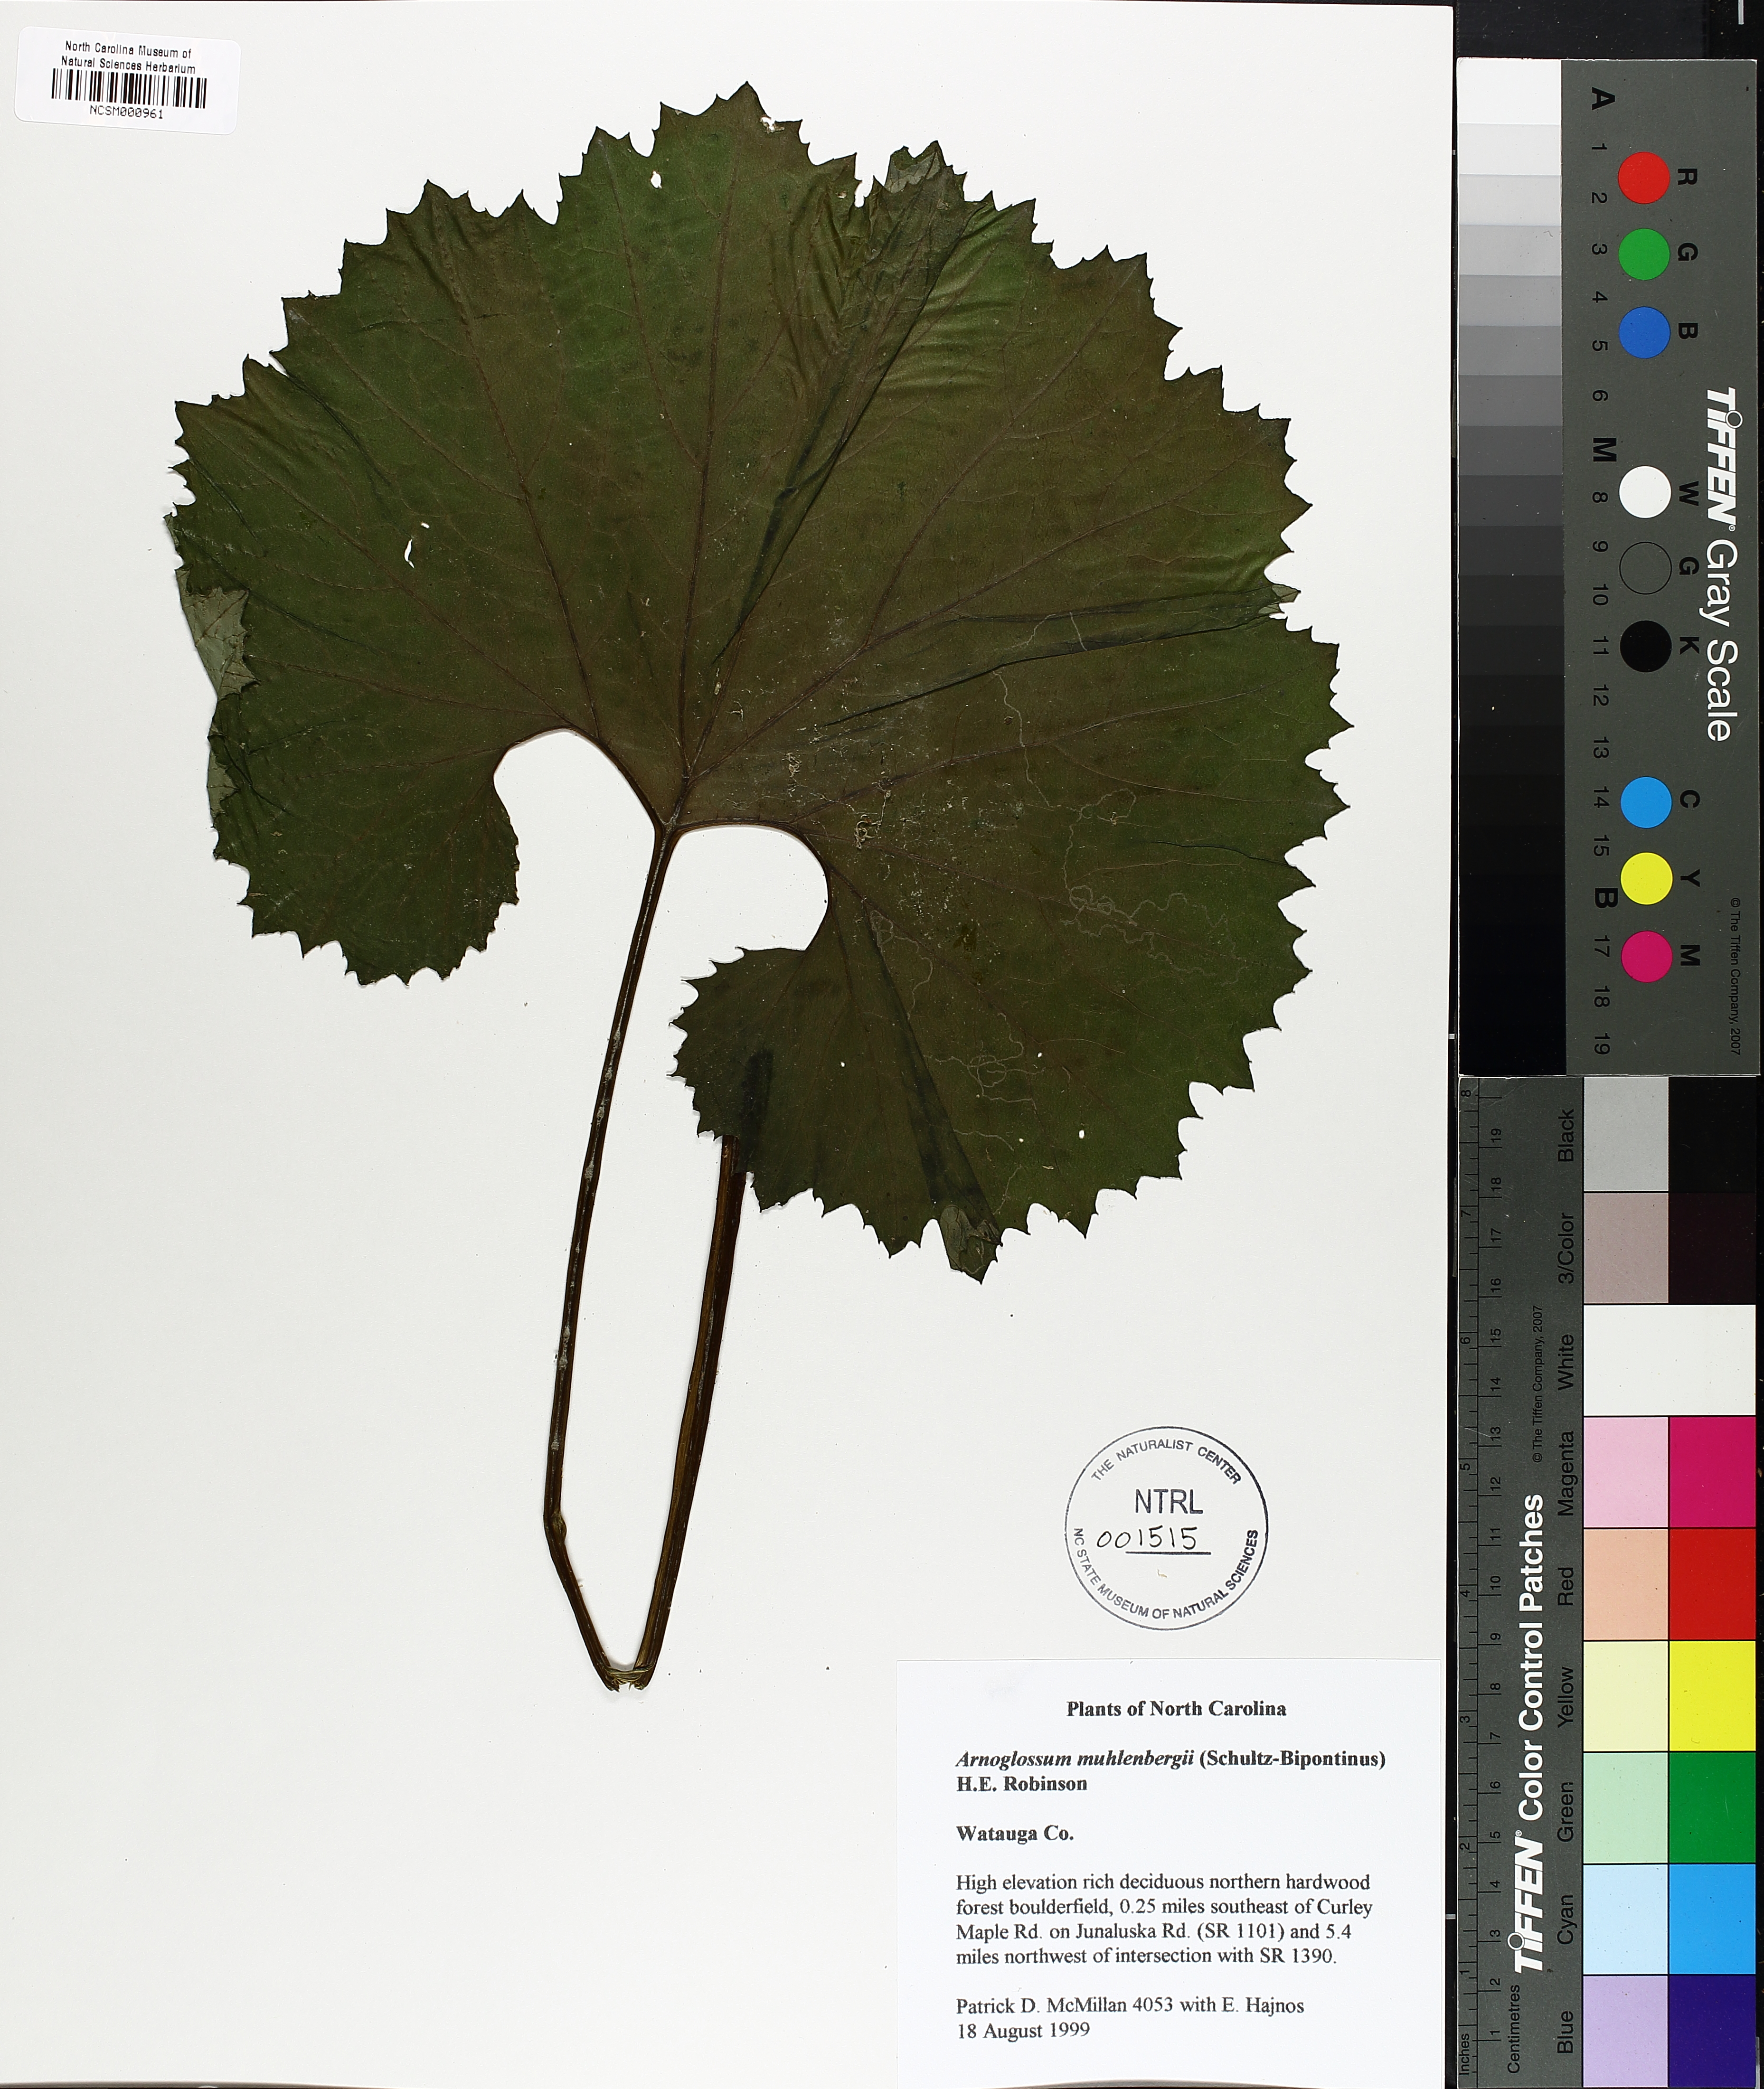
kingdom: Plantae
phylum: Tracheophyta
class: Magnoliopsida
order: Asterales
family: Asteraceae
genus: Arnoglossum
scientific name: Arnoglossum reniforme
